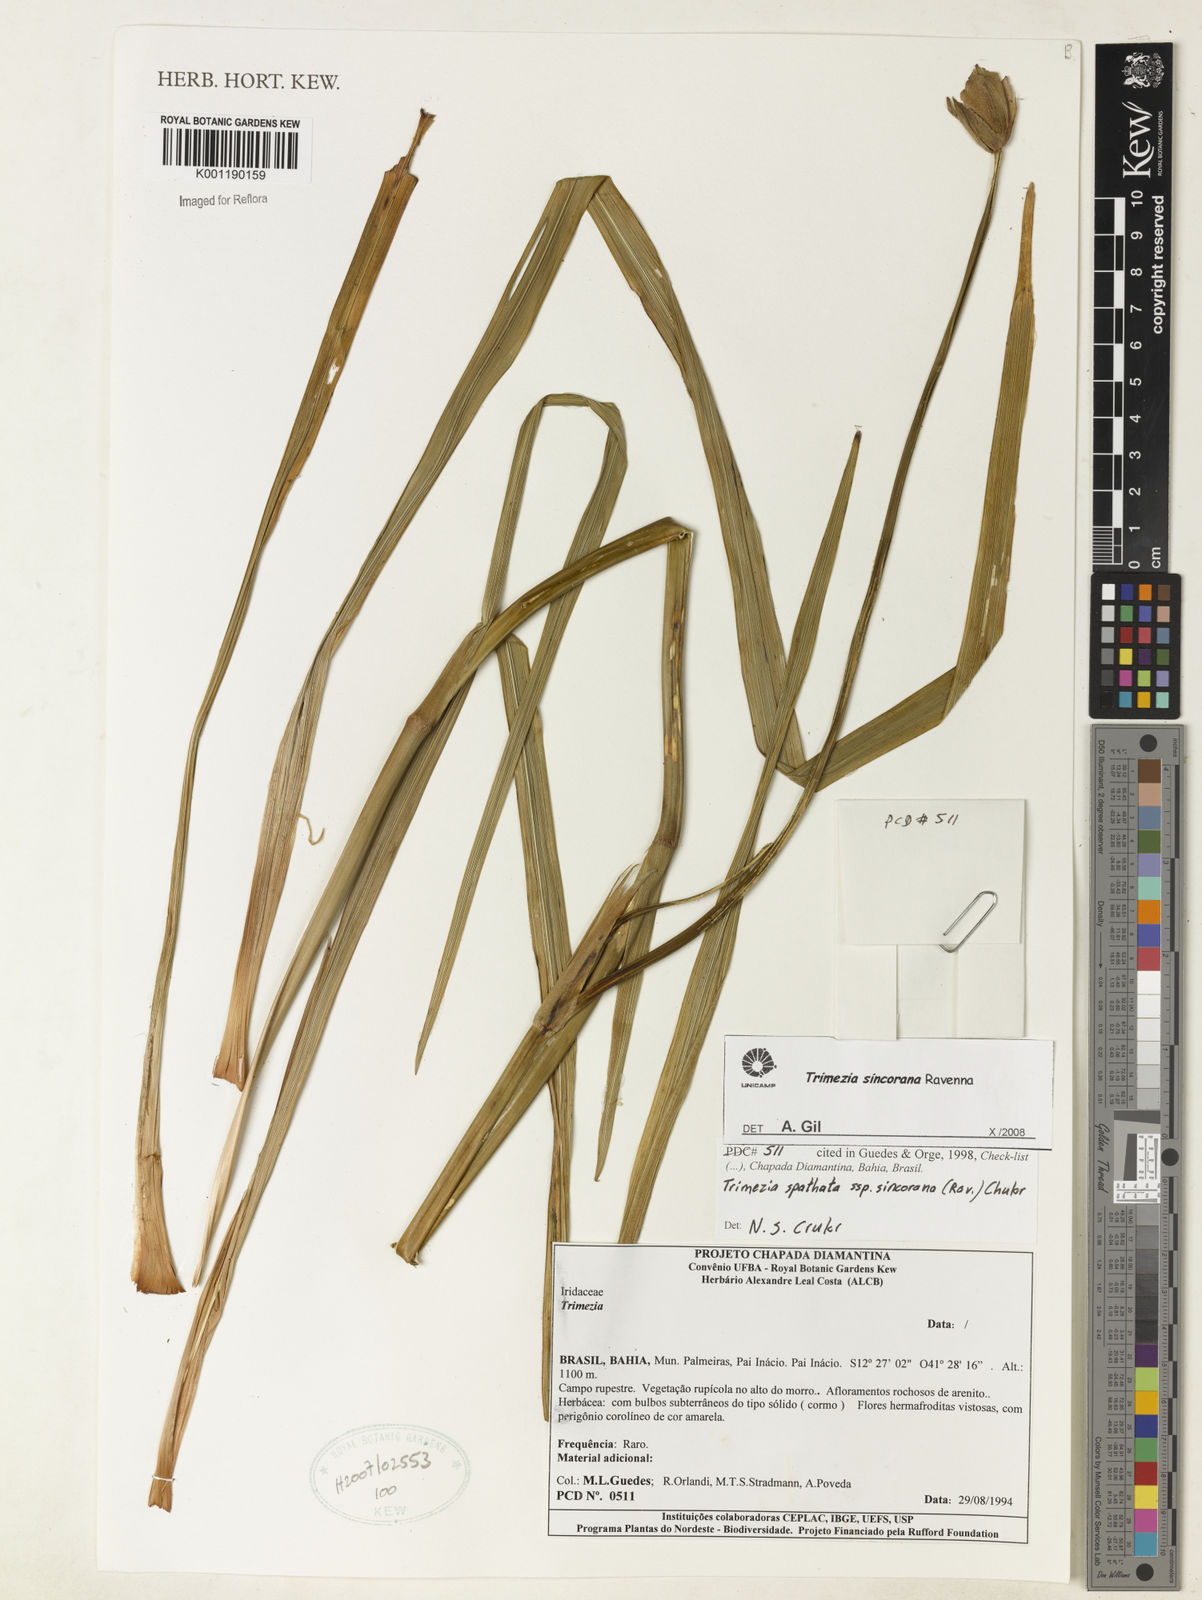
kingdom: Plantae
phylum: Tracheophyta
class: Liliopsida
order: Asparagales
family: Iridaceae
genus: Trimezia
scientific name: Trimezia spathata
